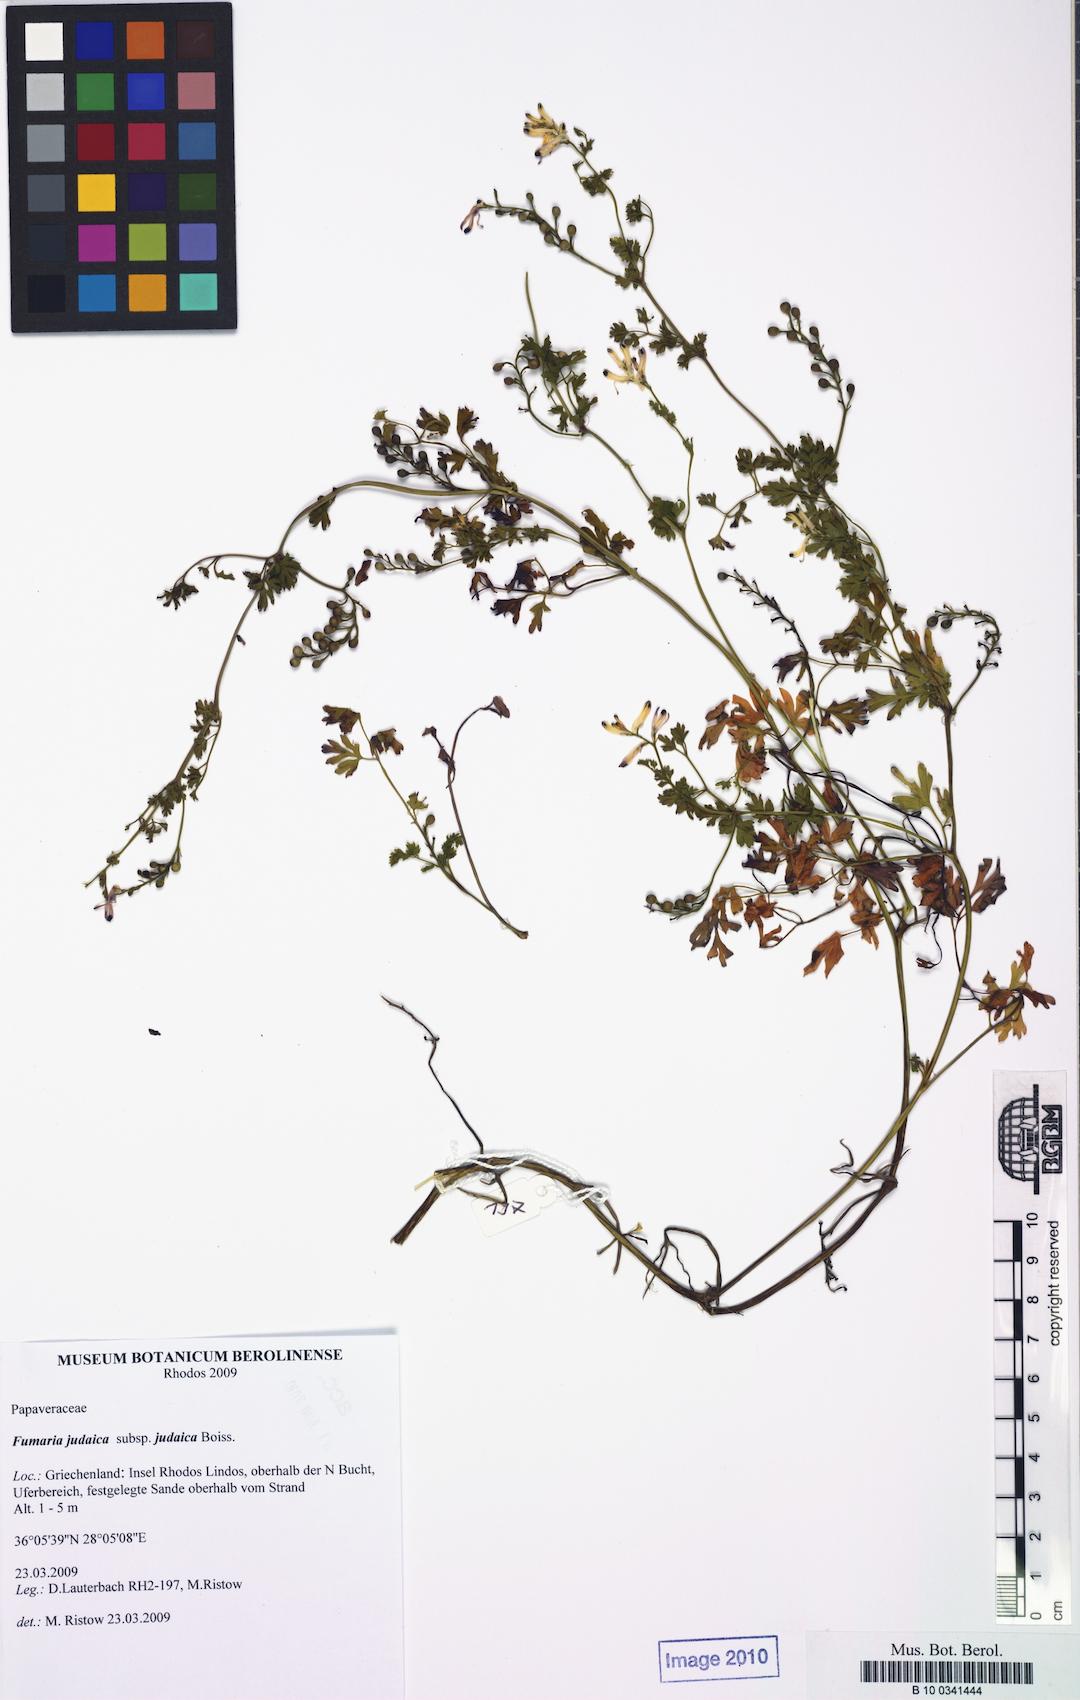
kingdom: Plantae
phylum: Tracheophyta
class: Magnoliopsida
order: Ranunculales
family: Papaveraceae
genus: Fumaria
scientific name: Fumaria judaica
